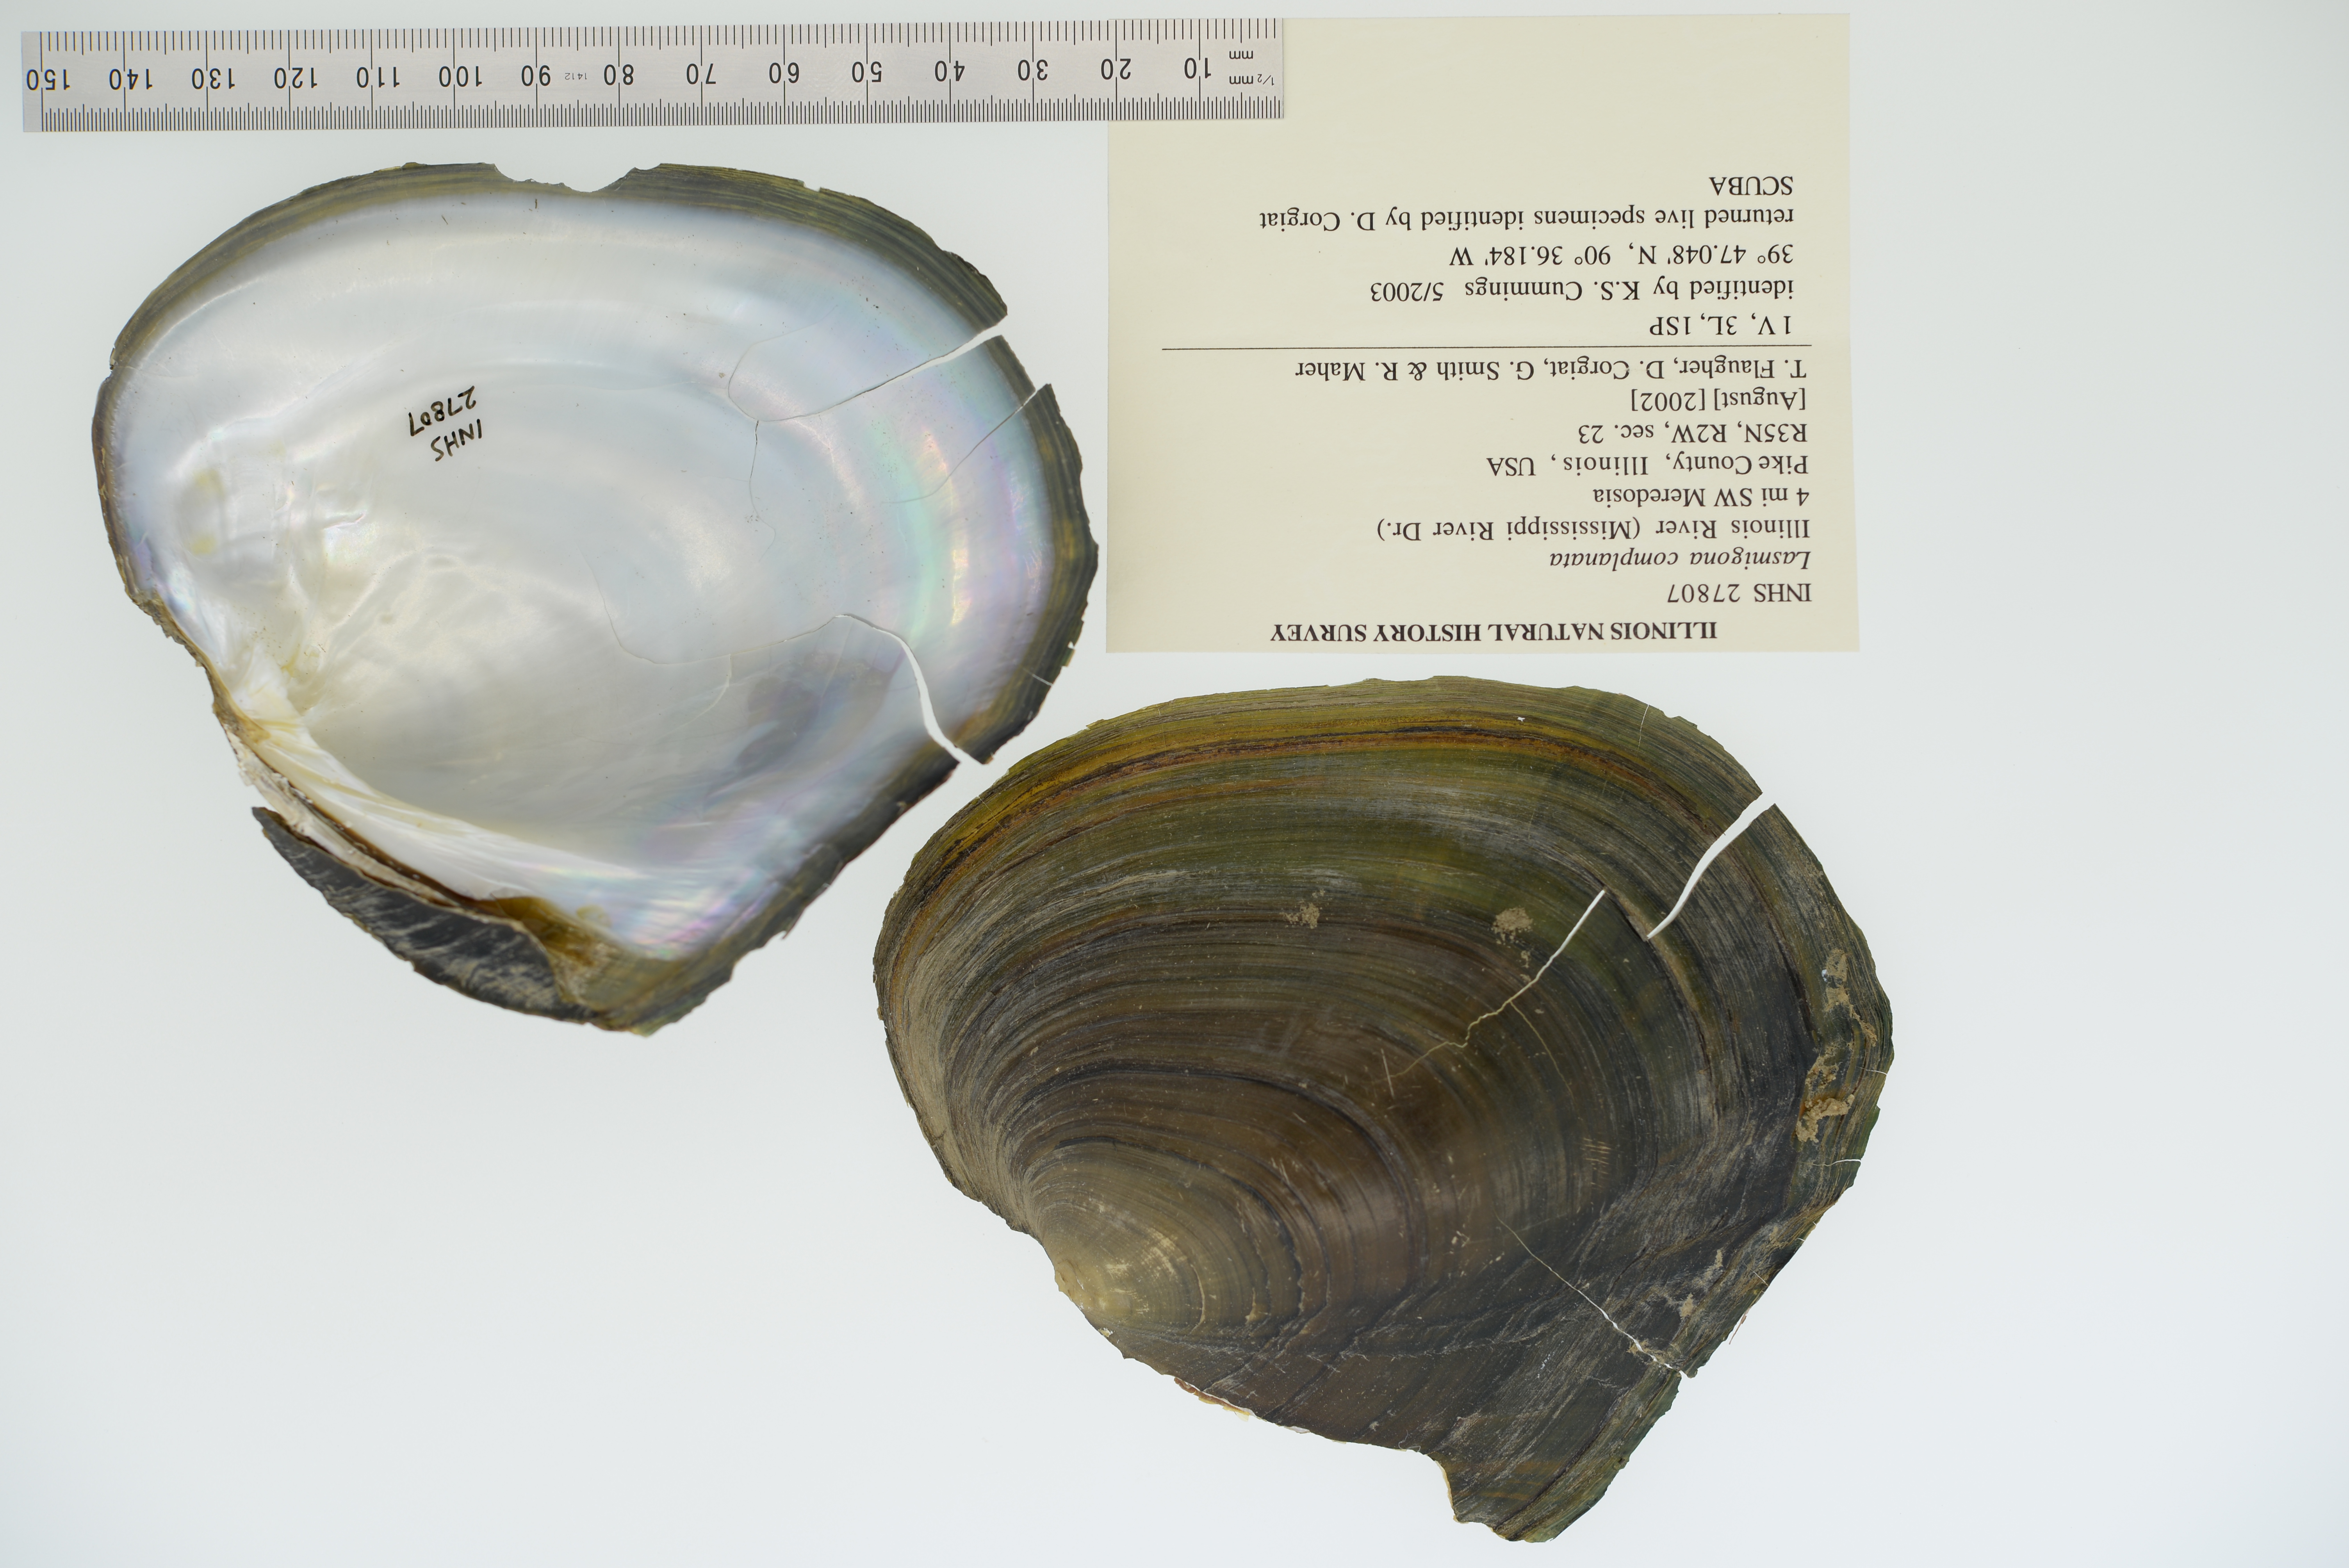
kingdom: Animalia
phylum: Mollusca
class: Bivalvia
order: Unionida
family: Unionidae
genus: Lasmigona
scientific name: Lasmigona complanata
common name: White heelsplitter
